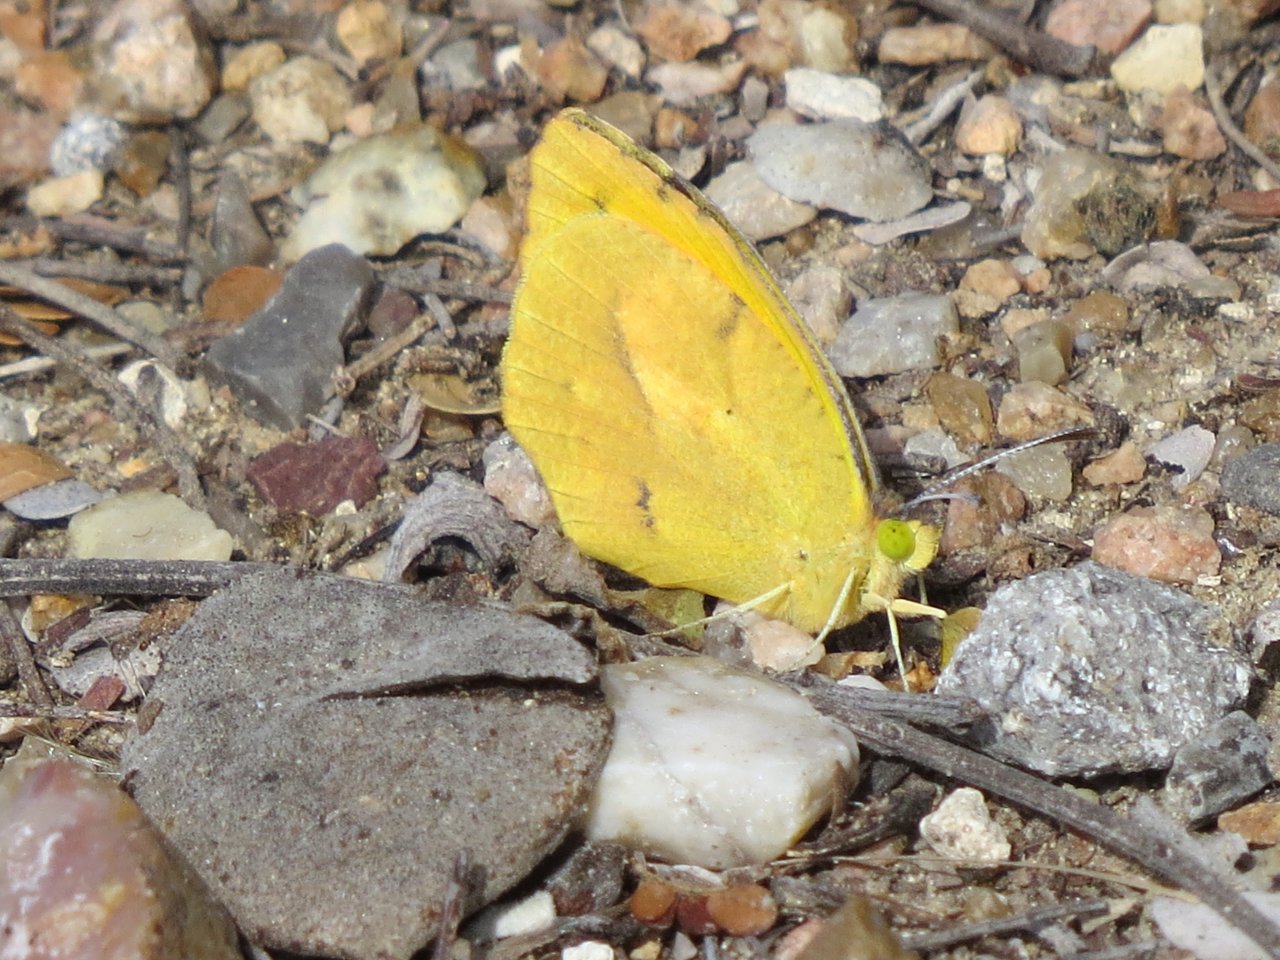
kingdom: Animalia
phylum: Arthropoda
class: Insecta
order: Lepidoptera
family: Pieridae
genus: Abaeis
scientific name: Abaeis nicippe
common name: Sleepy Orange
